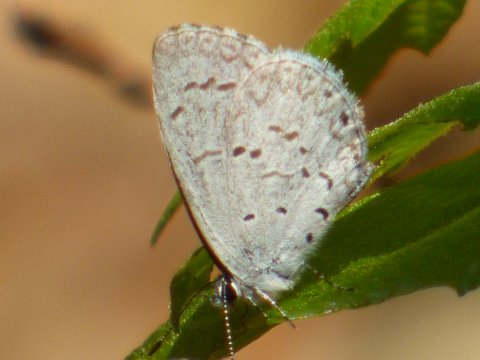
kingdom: Animalia
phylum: Arthropoda
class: Insecta
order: Lepidoptera
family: Lycaenidae
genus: Celastrina
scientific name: Celastrina ladon
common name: Spring Azure
